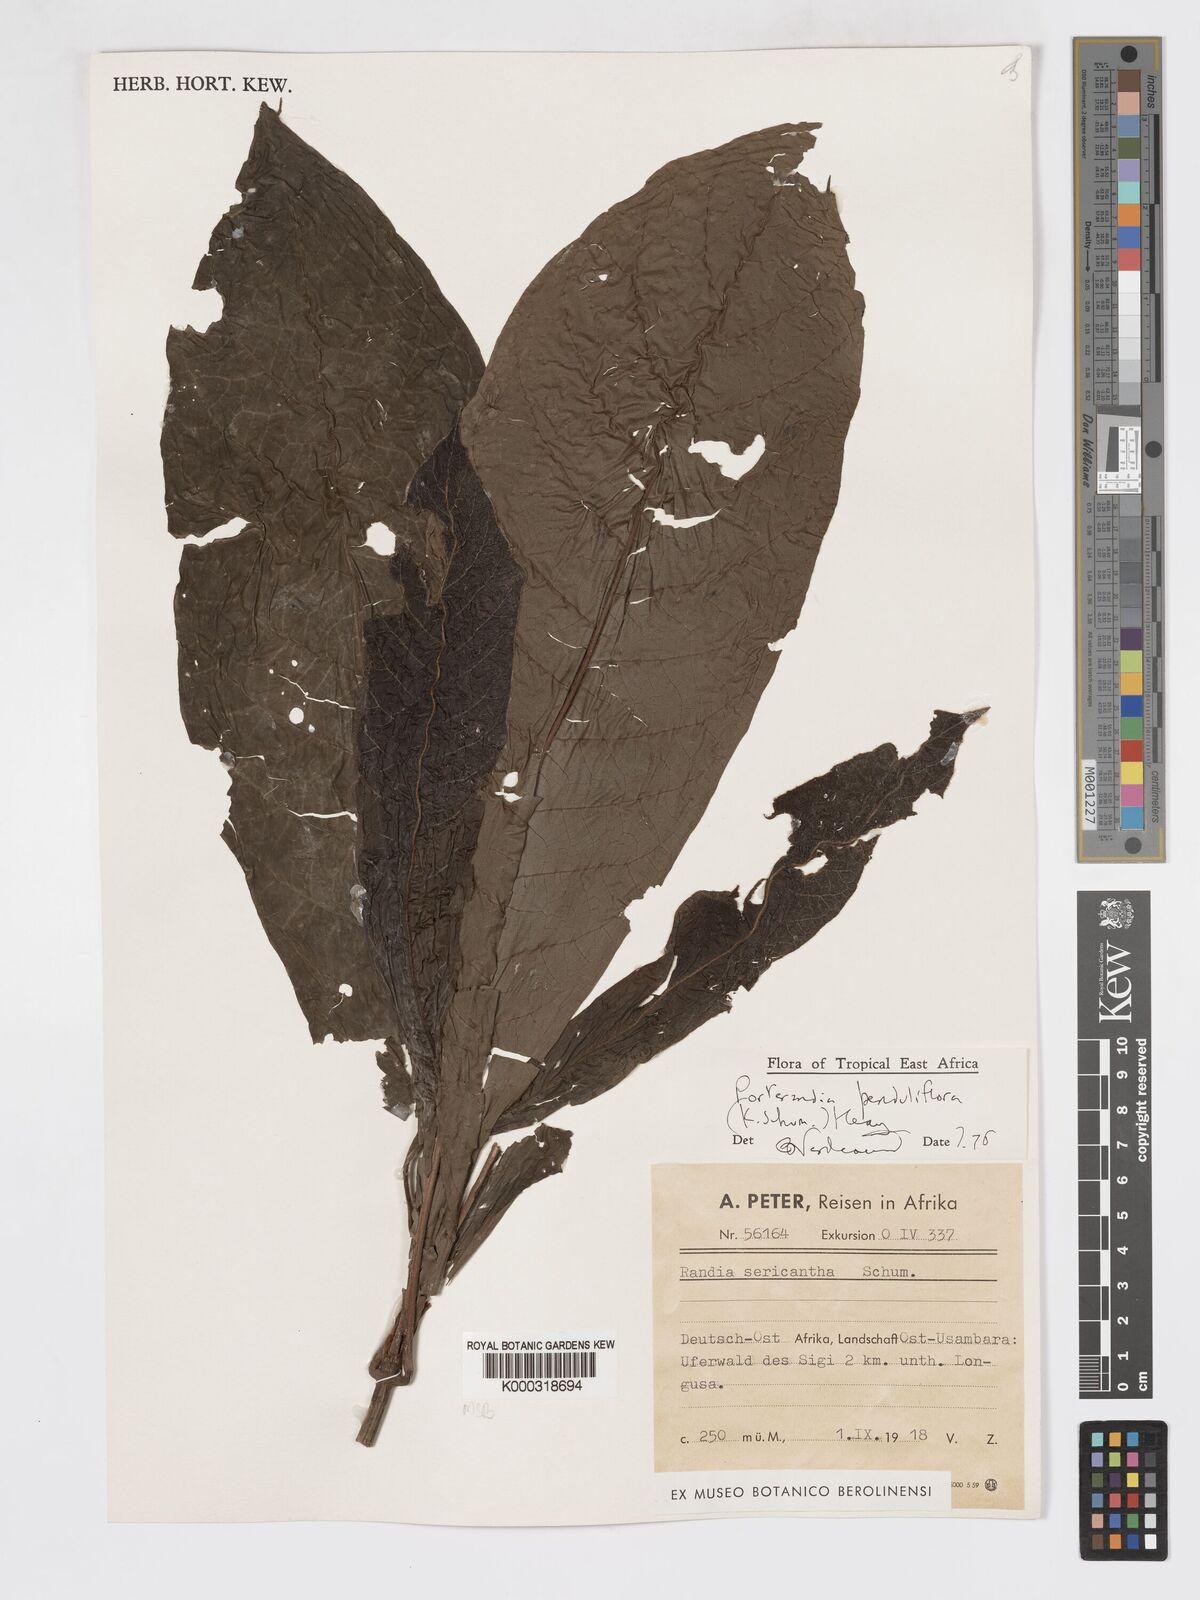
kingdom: Plantae
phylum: Tracheophyta
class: Magnoliopsida
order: Gentianales
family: Rubiaceae
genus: Aoranthe
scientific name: Aoranthe penduliflora
